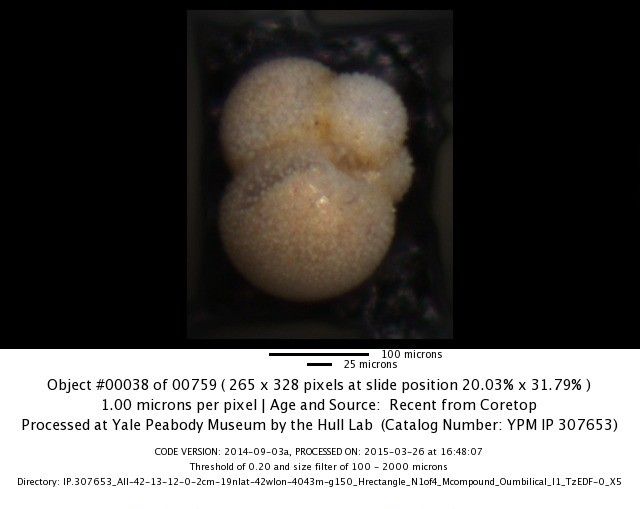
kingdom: Chromista
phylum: Foraminifera
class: Globothalamea
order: Rotaliida
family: Globigerinitidae
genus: Globigerinita
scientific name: Globigerinita glutinata
